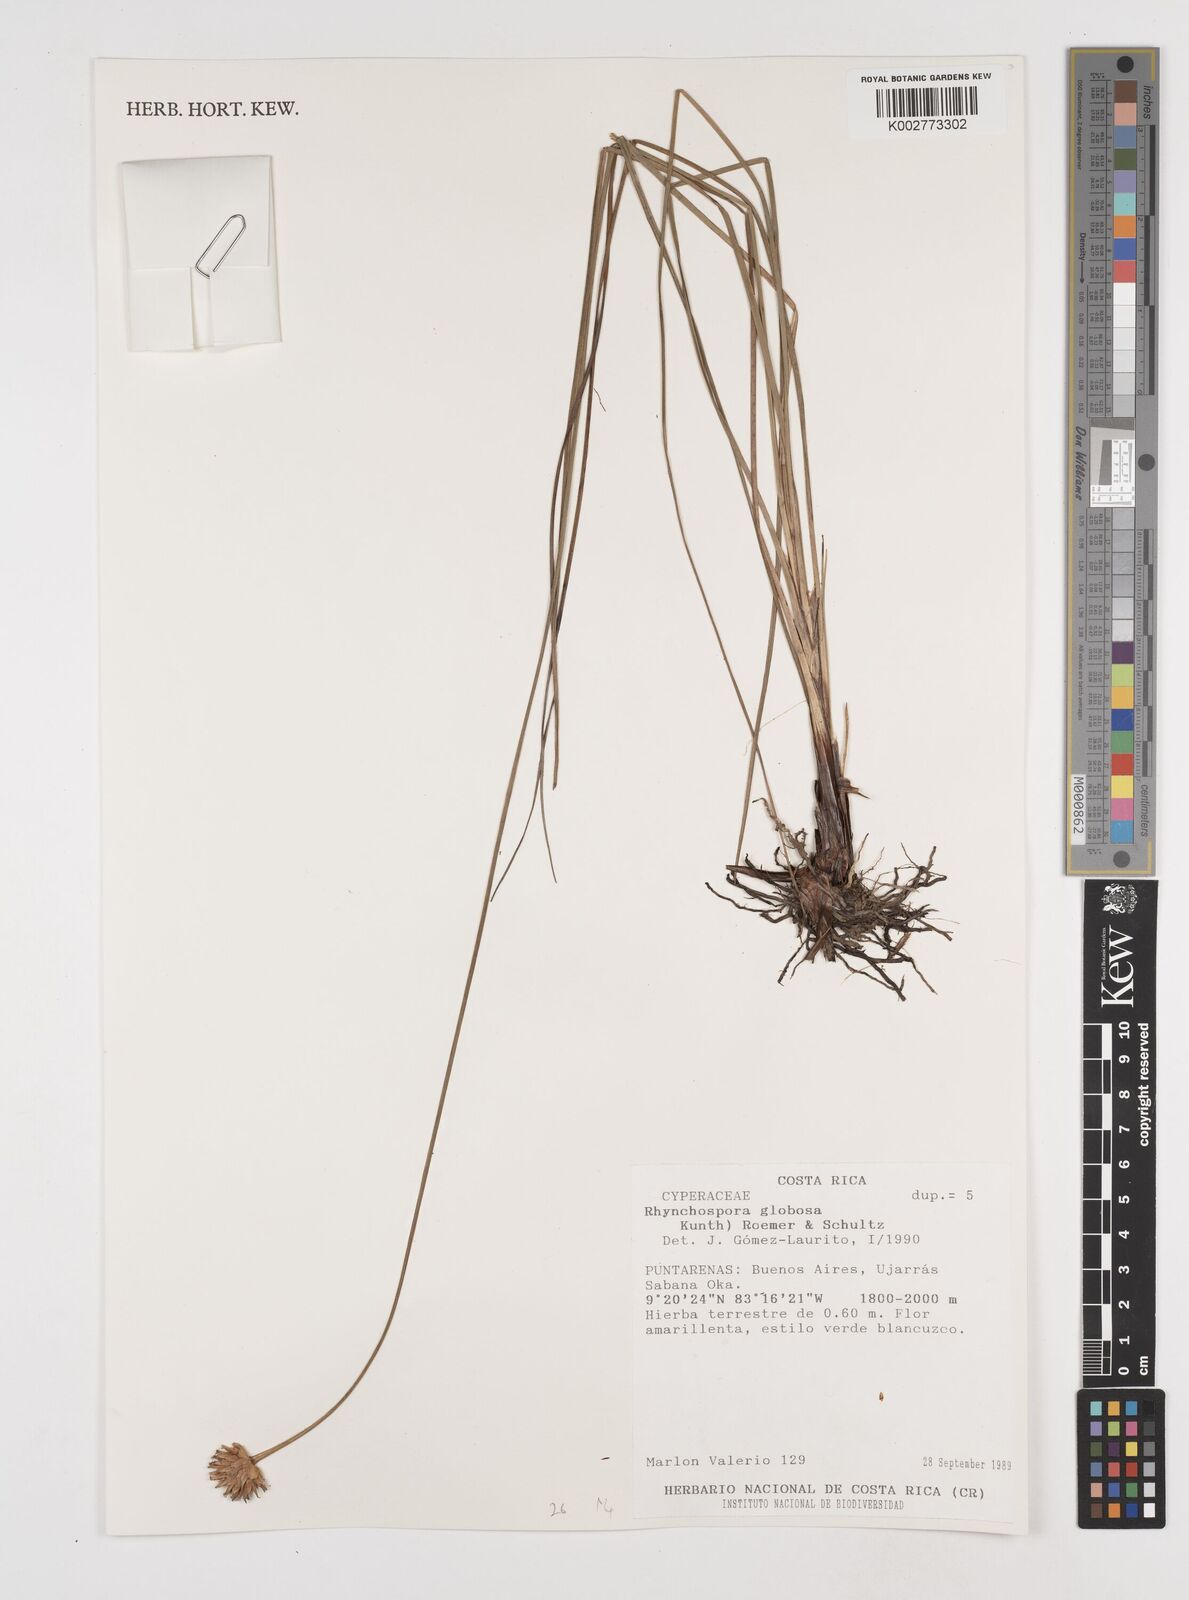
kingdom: Plantae
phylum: Tracheophyta
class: Liliopsida
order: Poales
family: Cyperaceae
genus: Rhynchospora
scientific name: Rhynchospora globosa
